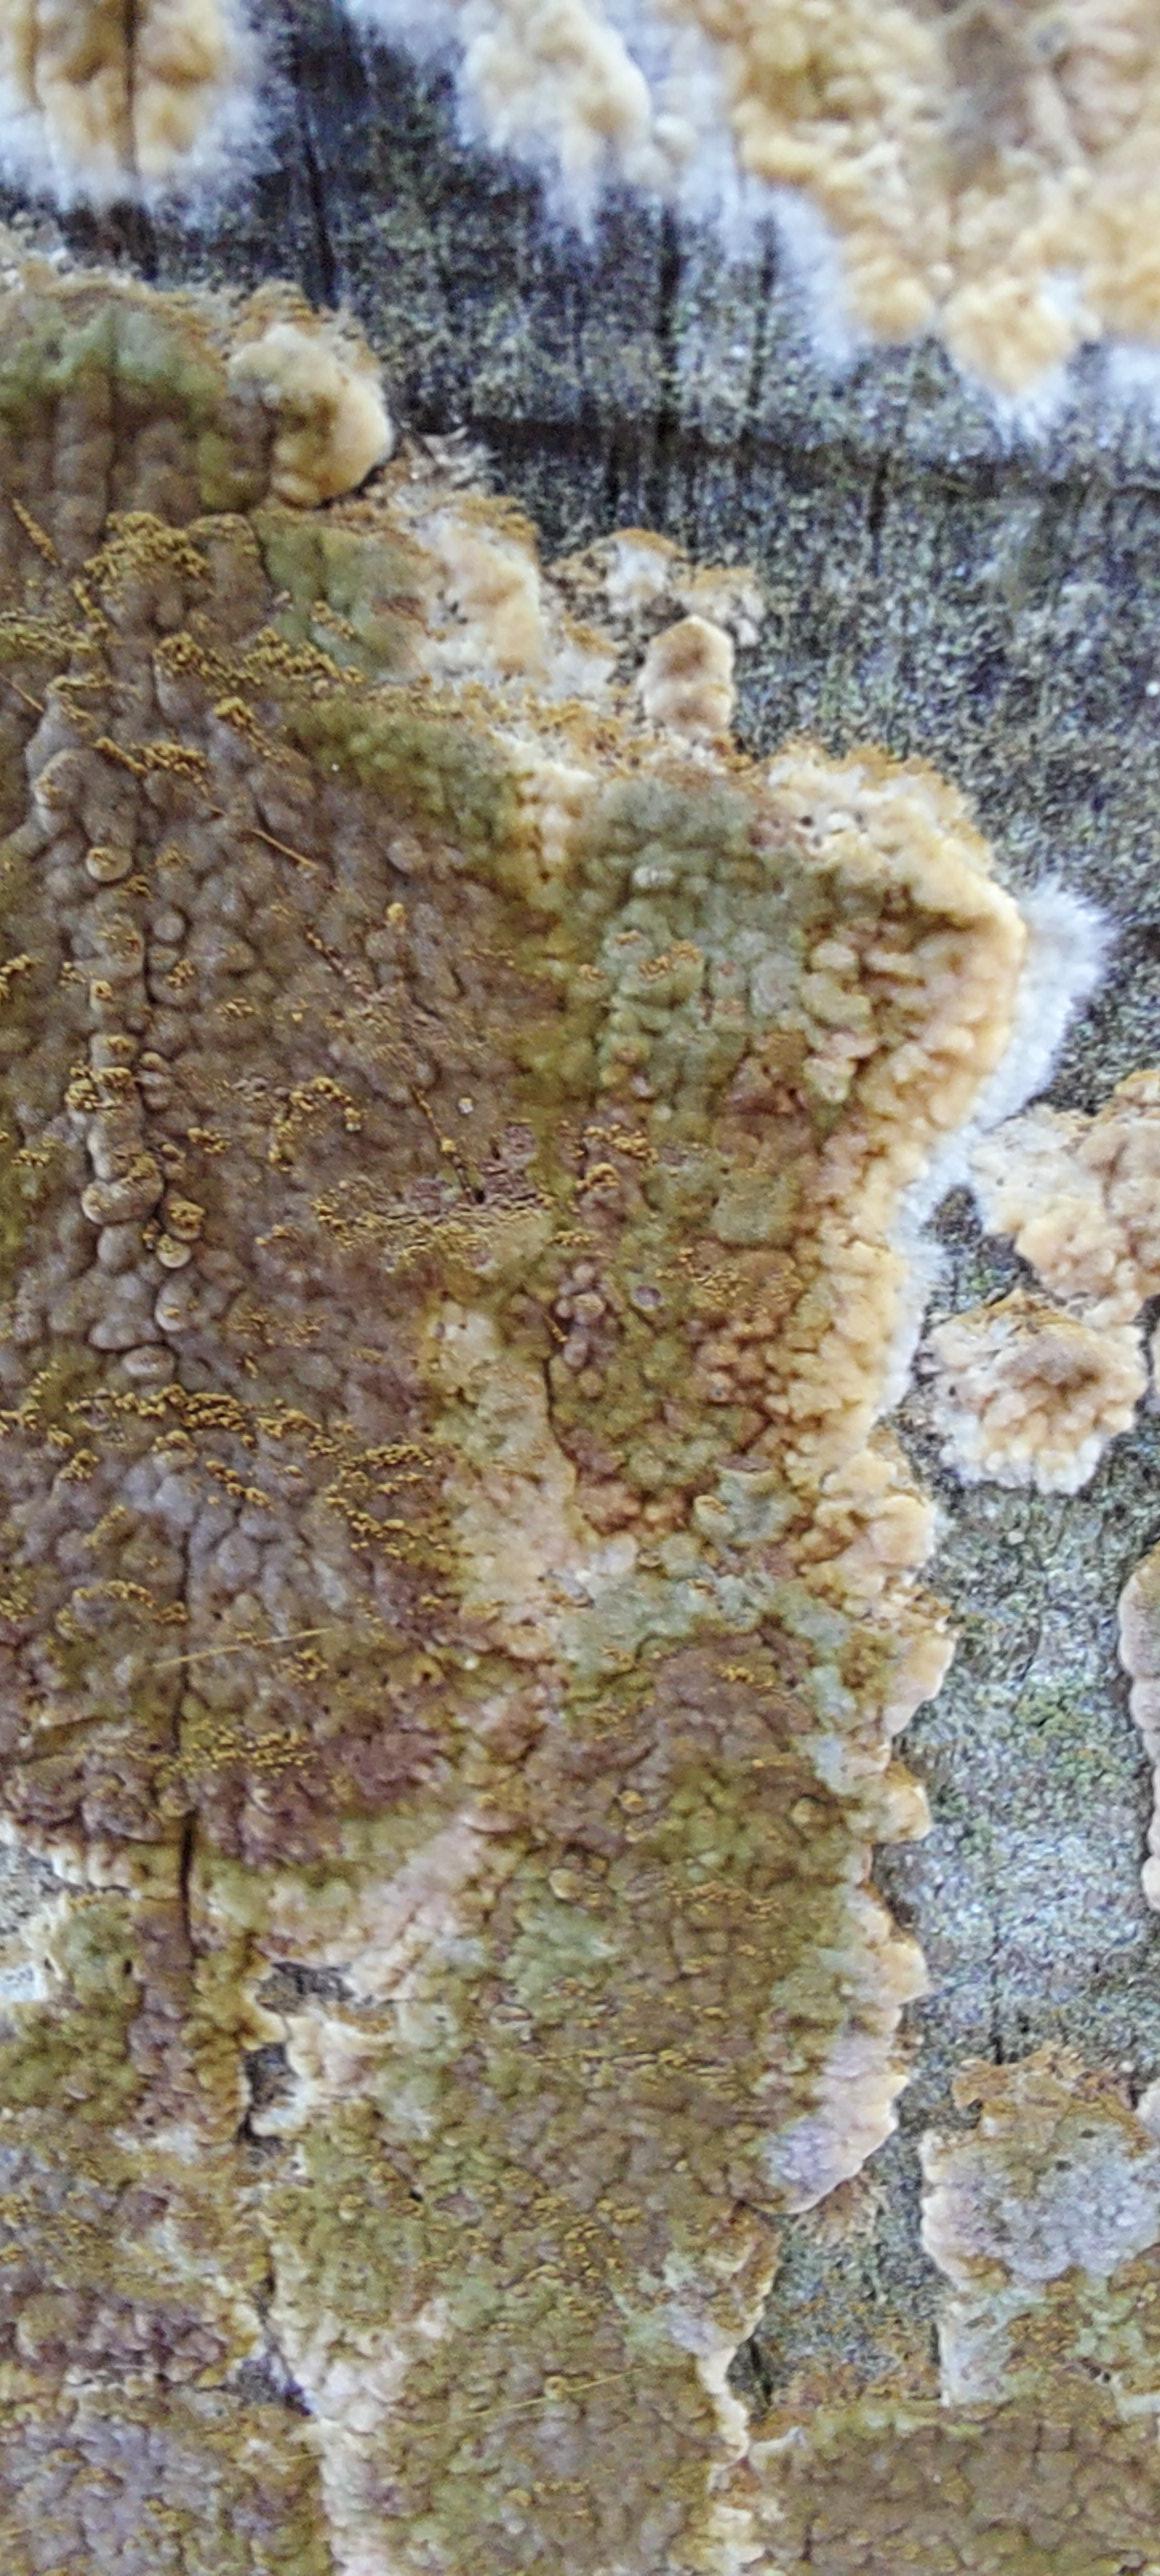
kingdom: Fungi
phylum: Basidiomycota
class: Agaricomycetes
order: Boletales
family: Coniophoraceae
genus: Coniophora
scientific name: Coniophora puteana
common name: gul tømmersvamp
